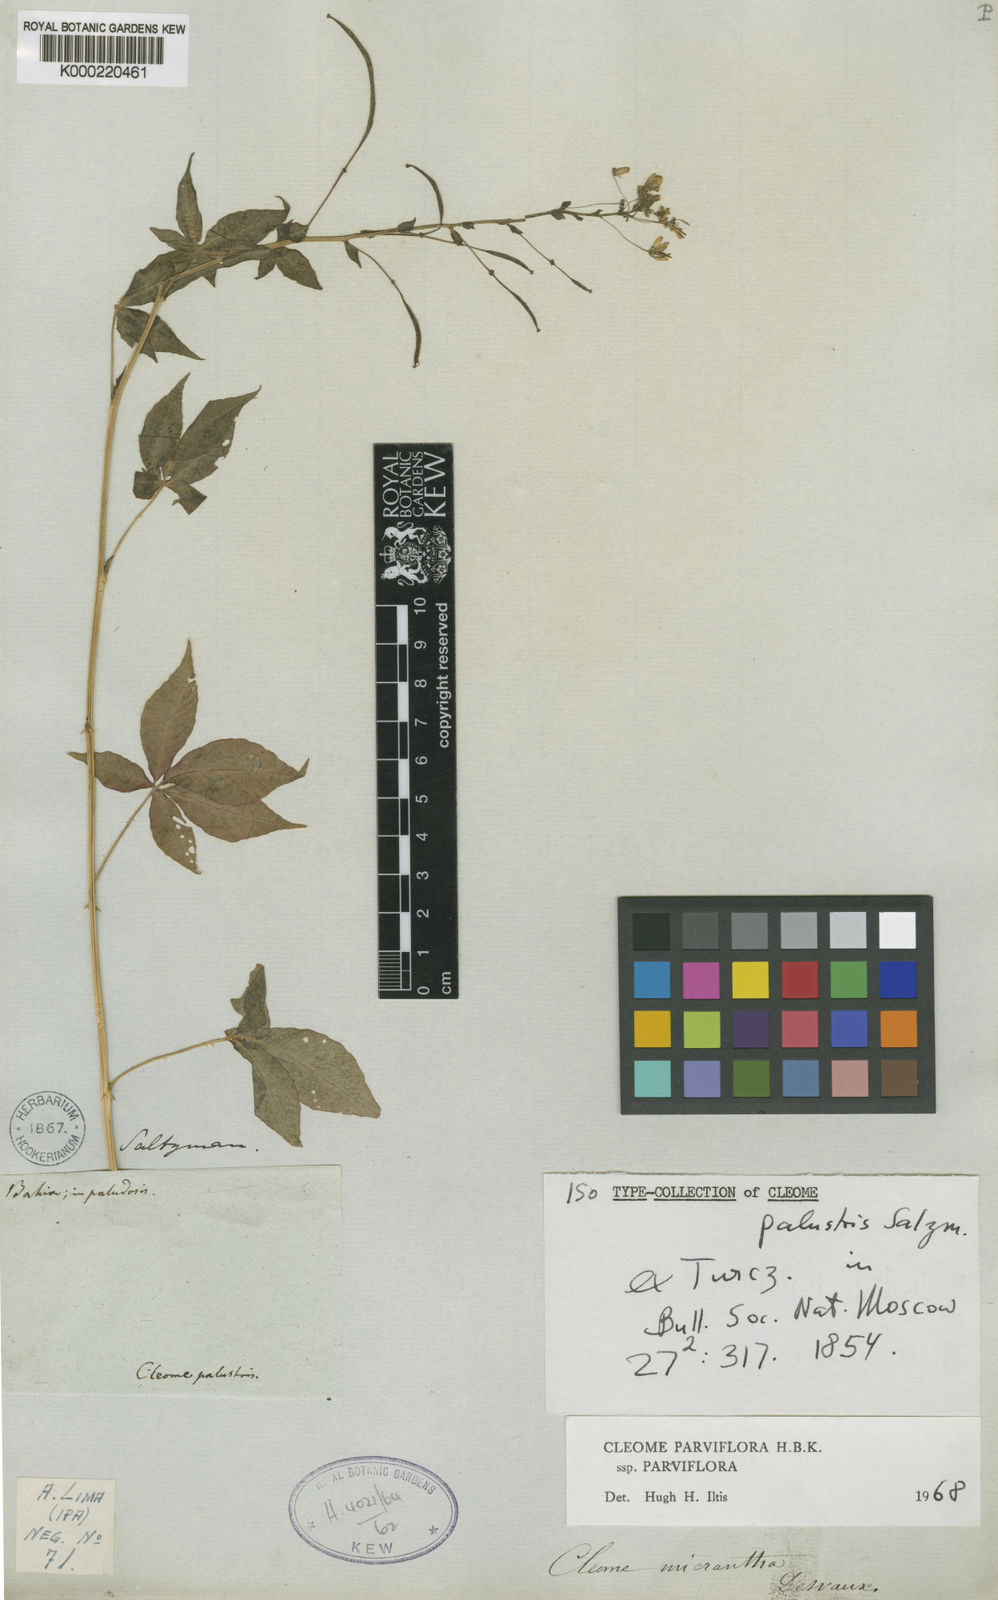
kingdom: Plantae
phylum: Tracheophyta
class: Magnoliopsida
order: Brassicales
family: Cleomaceae
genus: Tarenaya
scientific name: Tarenaya parviflora
